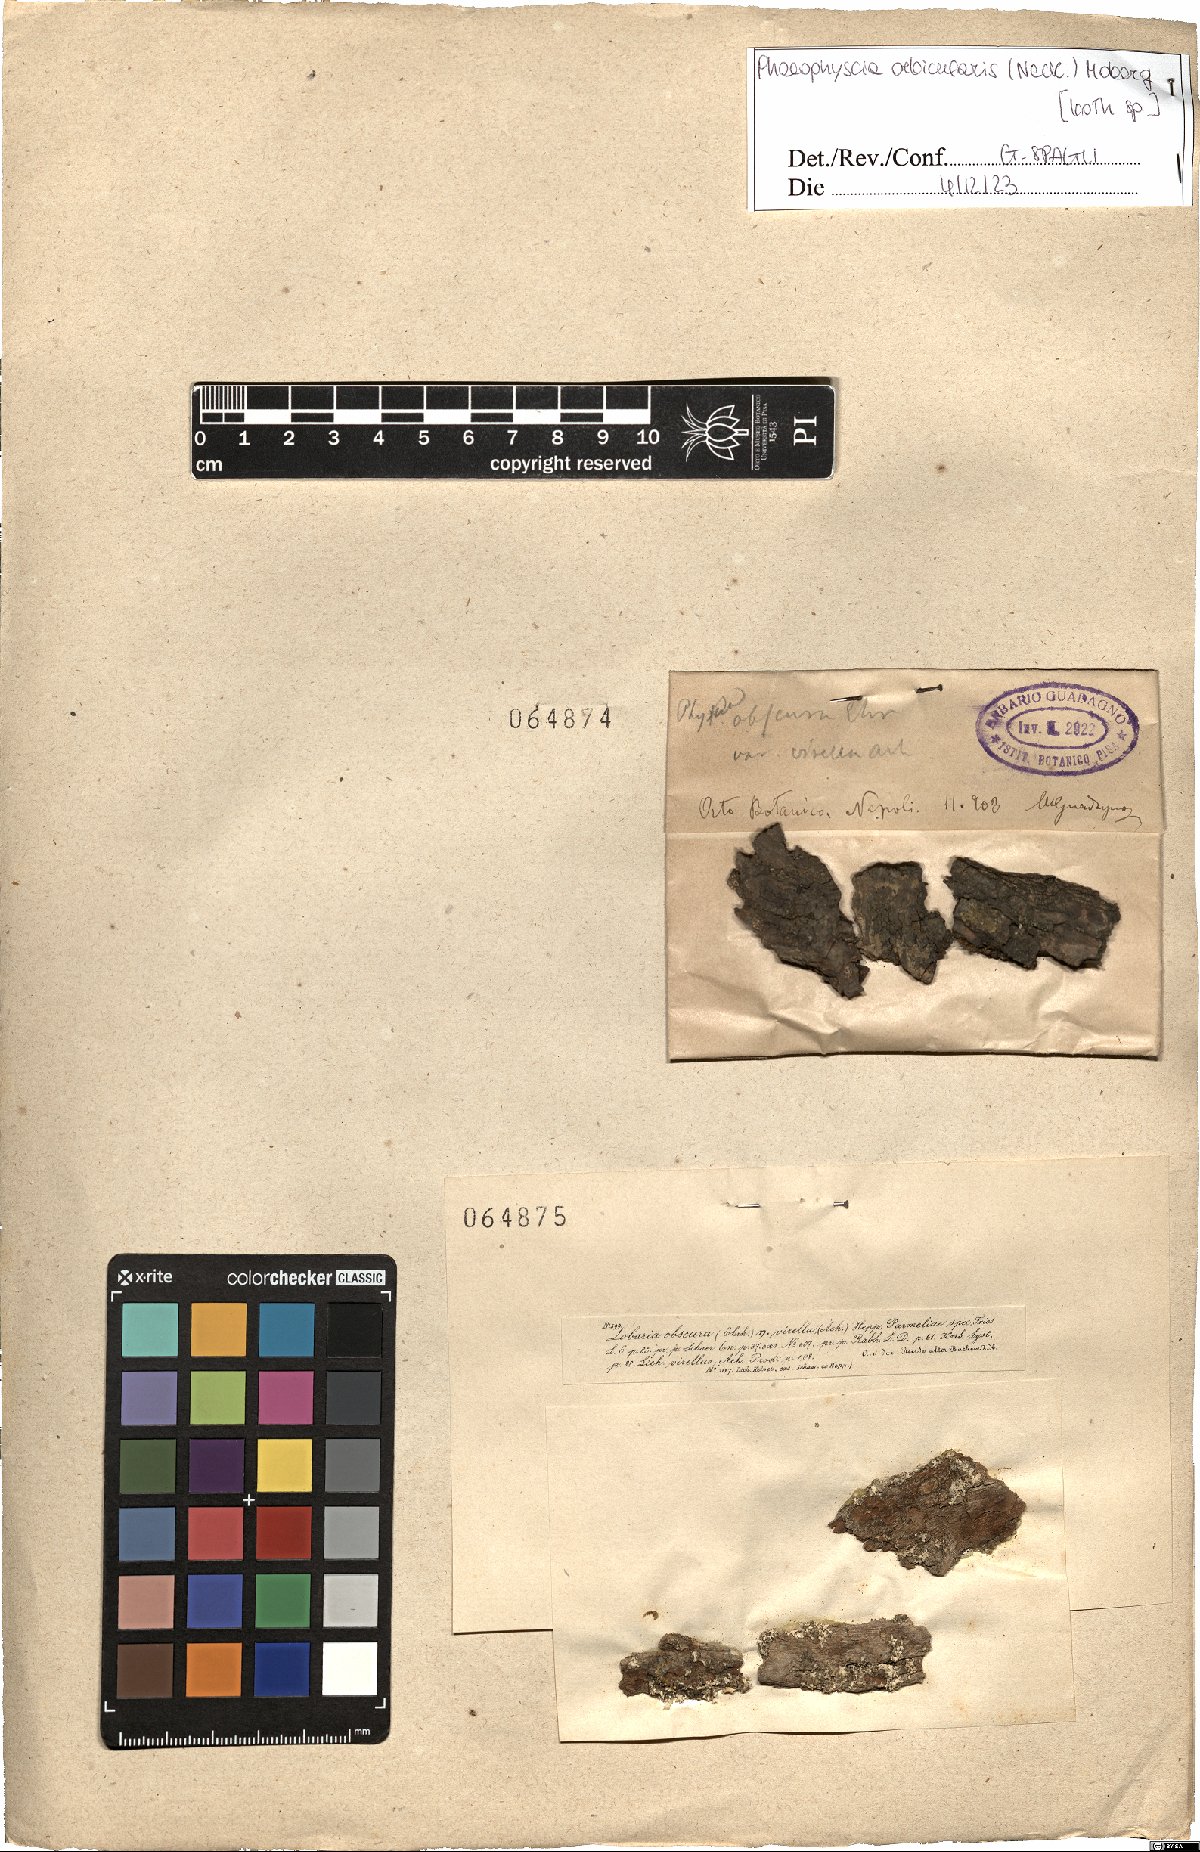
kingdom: Fungi
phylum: Ascomycota
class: Lecanoromycetes
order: Caliciales
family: Physciaceae
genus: Phaeophyscia
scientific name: Phaeophyscia orbicularis
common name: Mealy shadow lichen
